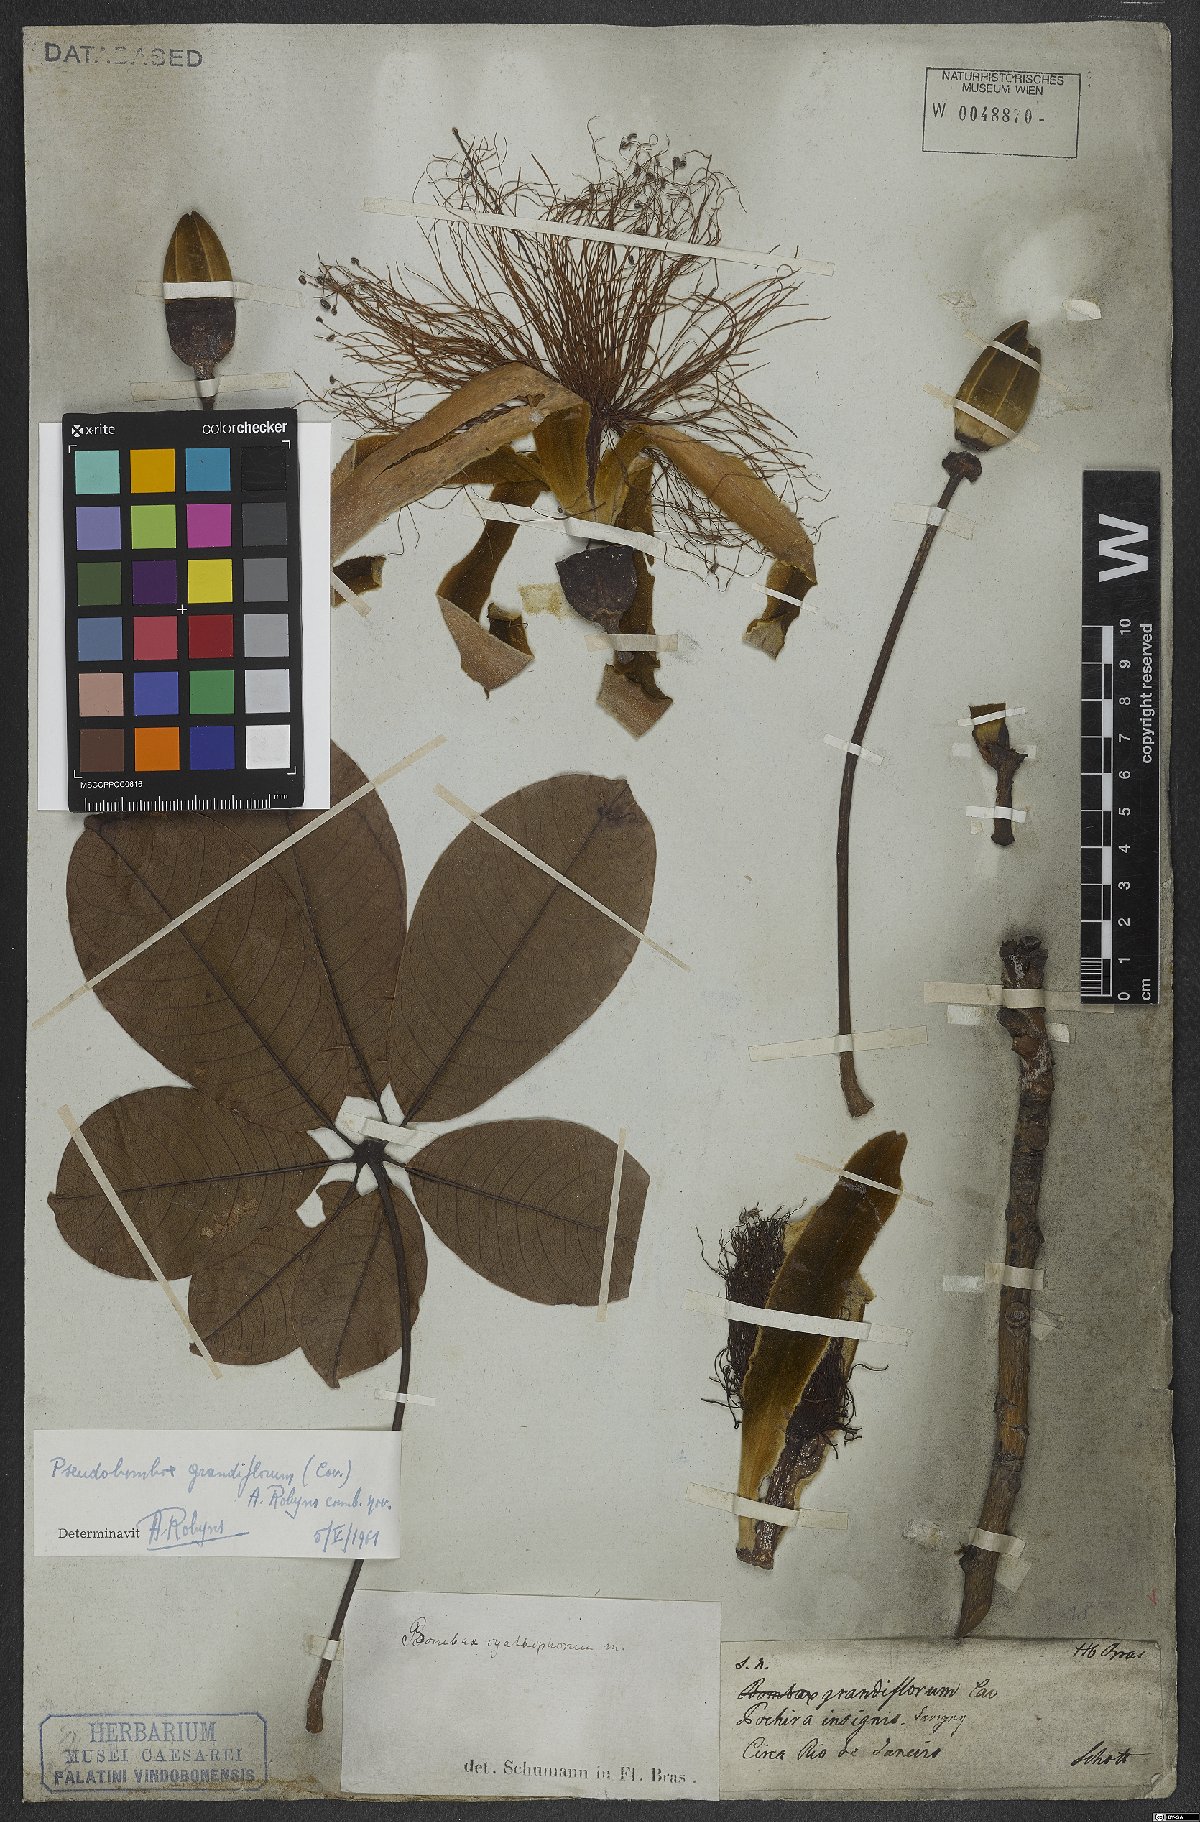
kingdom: Plantae
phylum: Tracheophyta
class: Magnoliopsida
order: Malvales
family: Malvaceae
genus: Pseudobombax
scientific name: Pseudobombax grandiflorum
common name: Brazilian shaving-brush-tree
